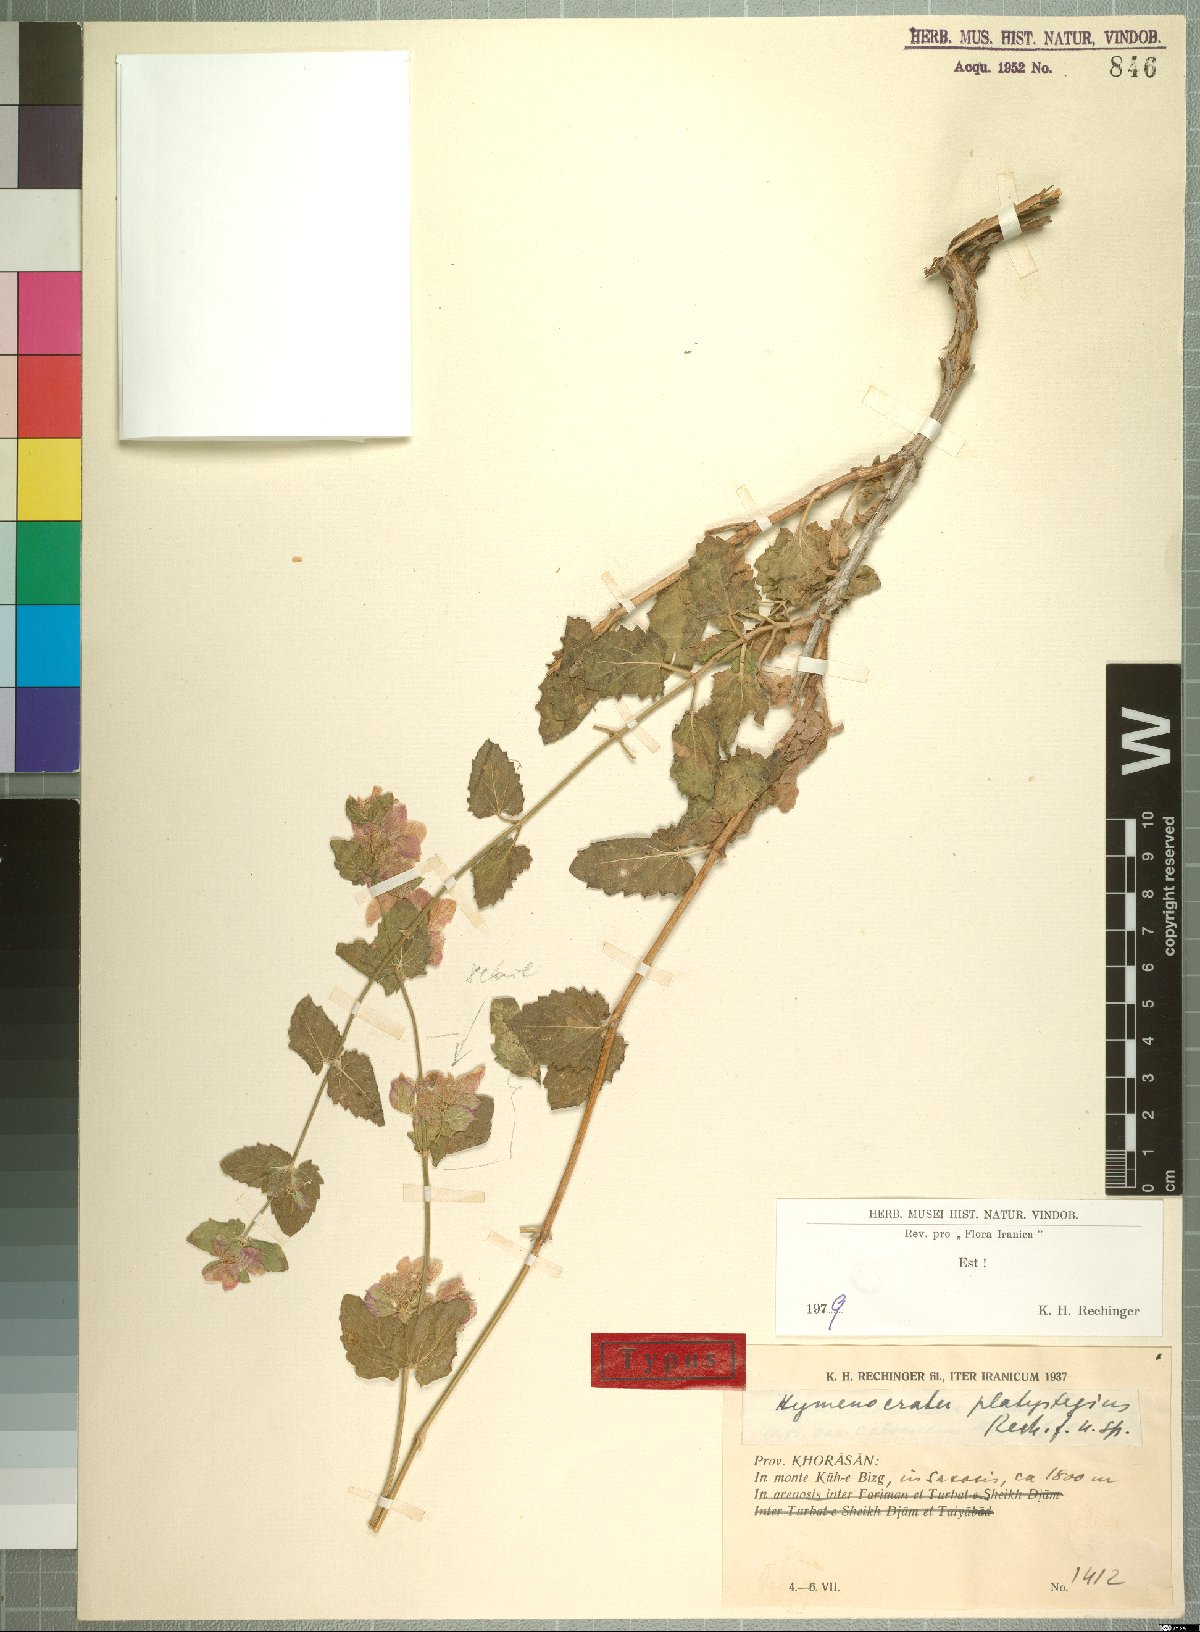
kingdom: Plantae
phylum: Tracheophyta
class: Magnoliopsida
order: Lamiales
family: Lamiaceae
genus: Hymenocrater
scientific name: Hymenocrater platystegius
